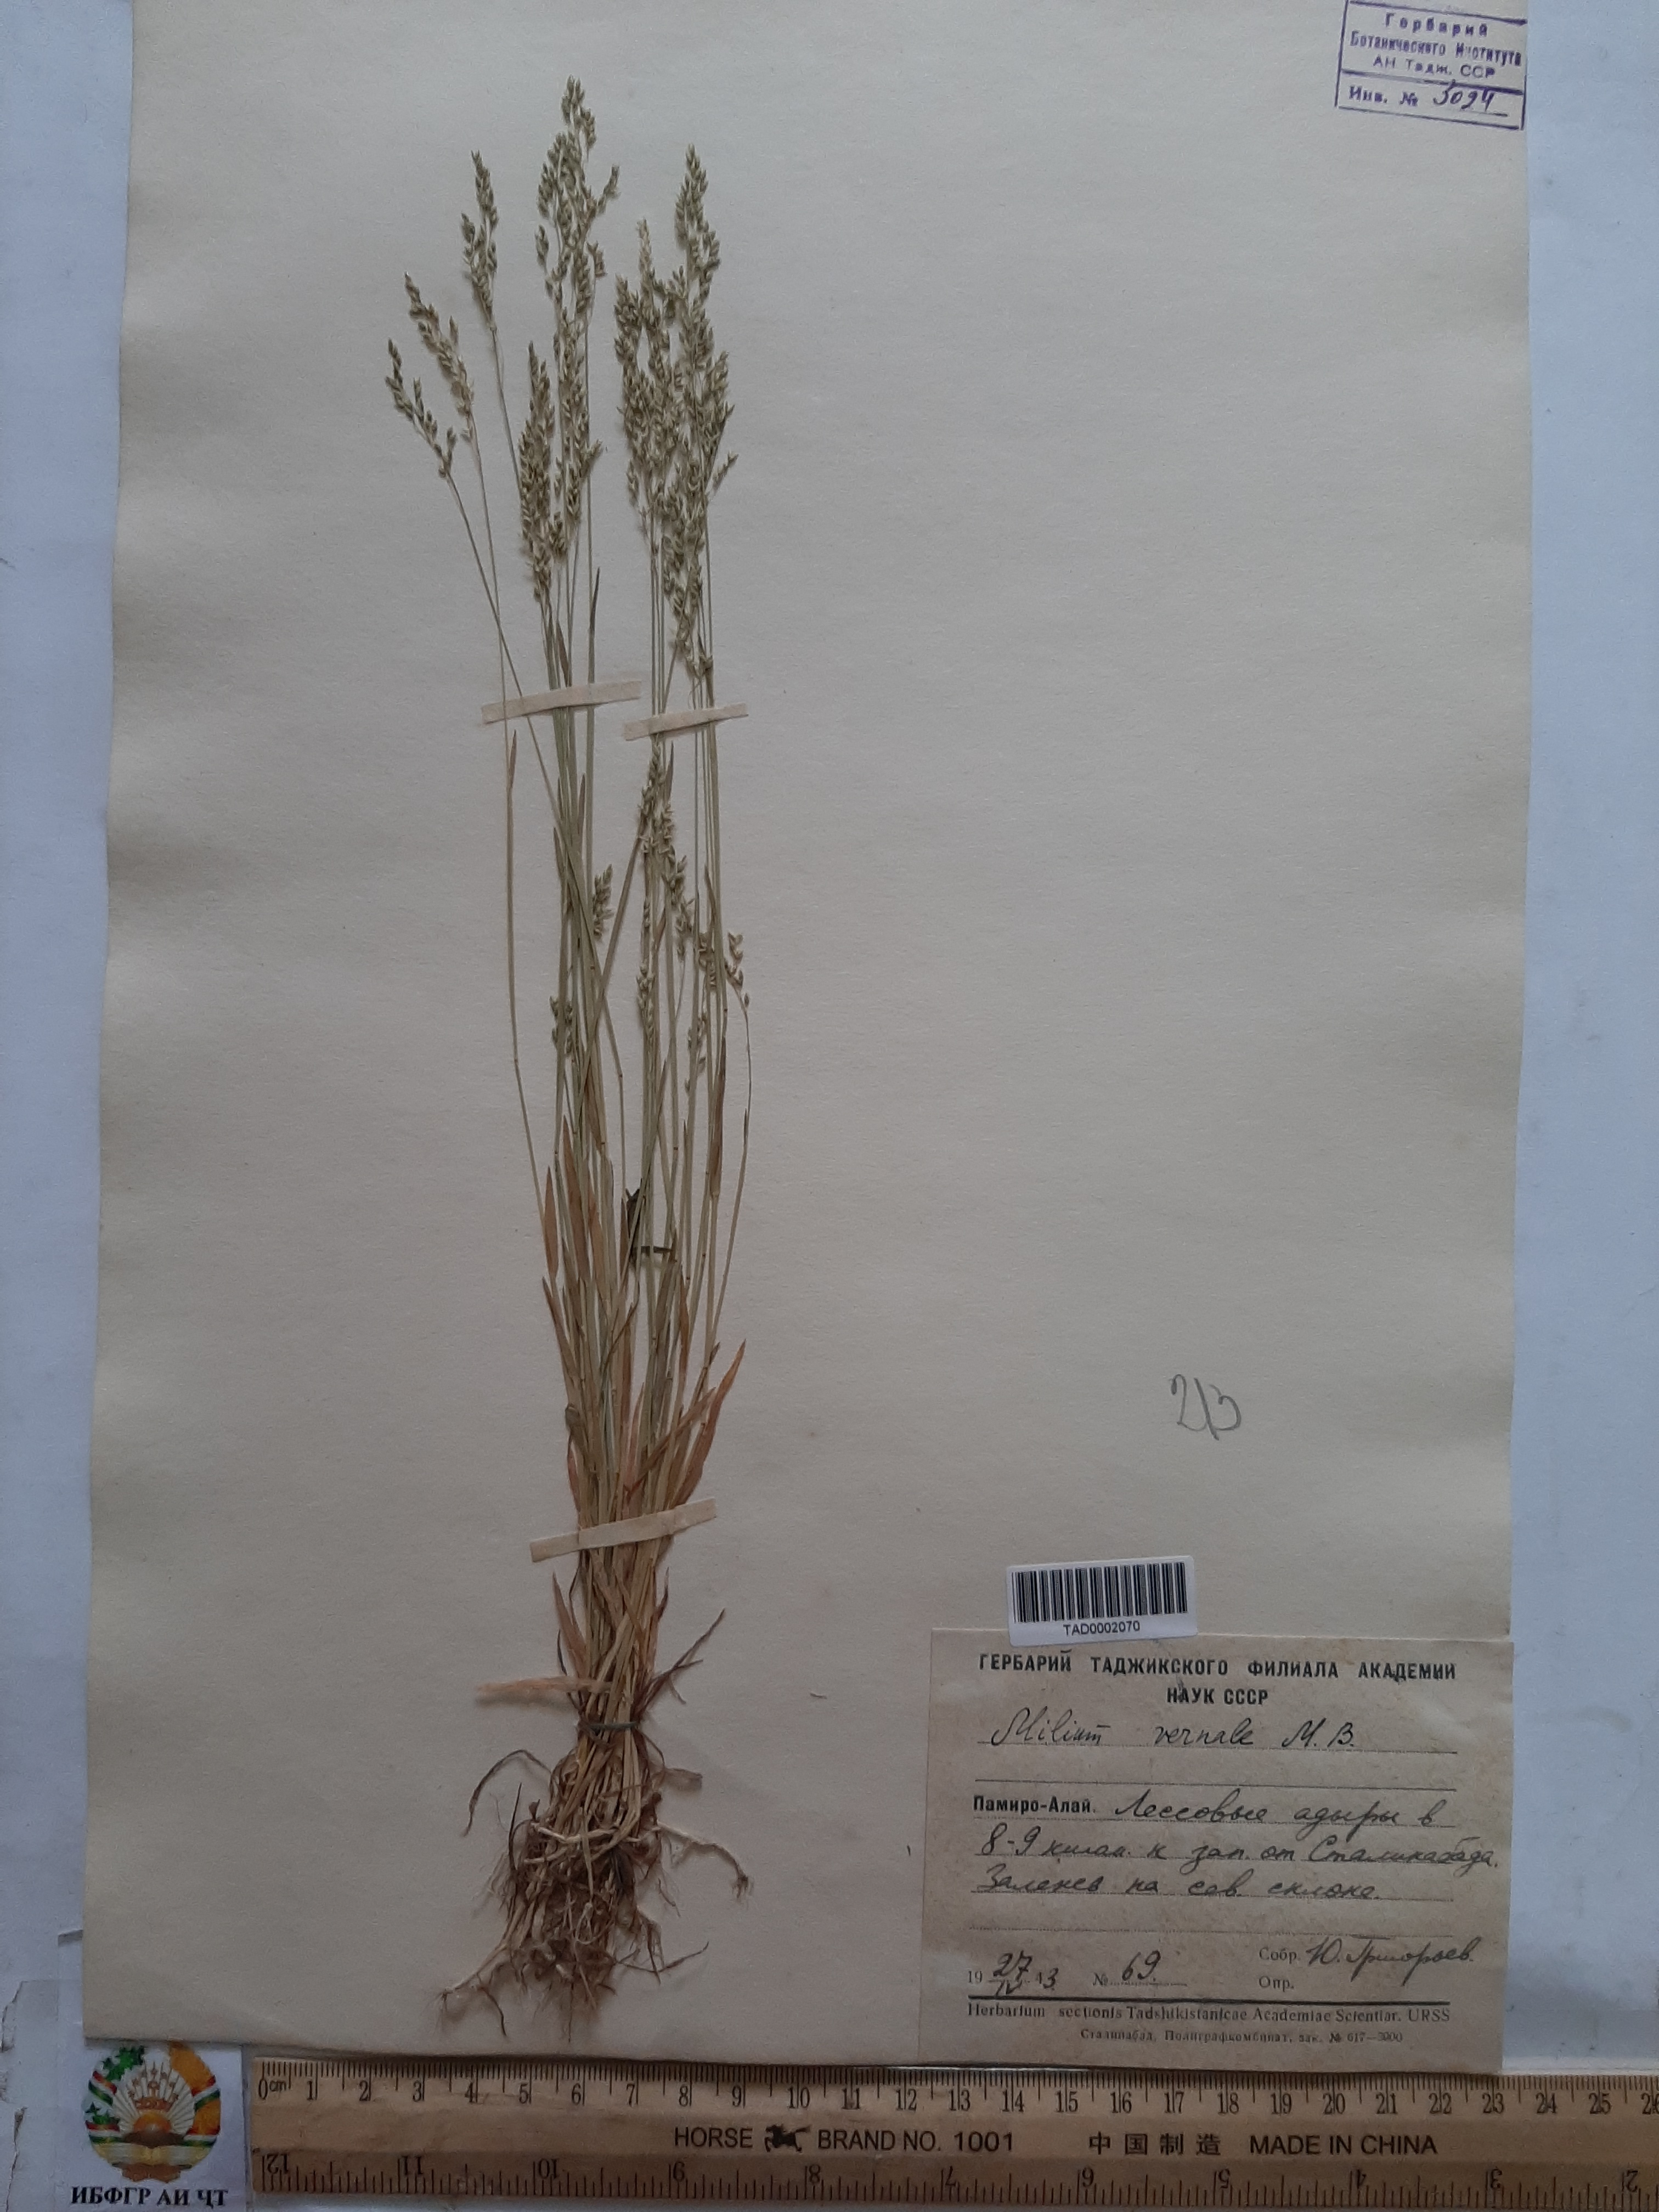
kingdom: Plantae
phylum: Tracheophyta
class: Liliopsida
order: Poales
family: Poaceae
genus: Milium
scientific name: Milium vernale
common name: Early millet
